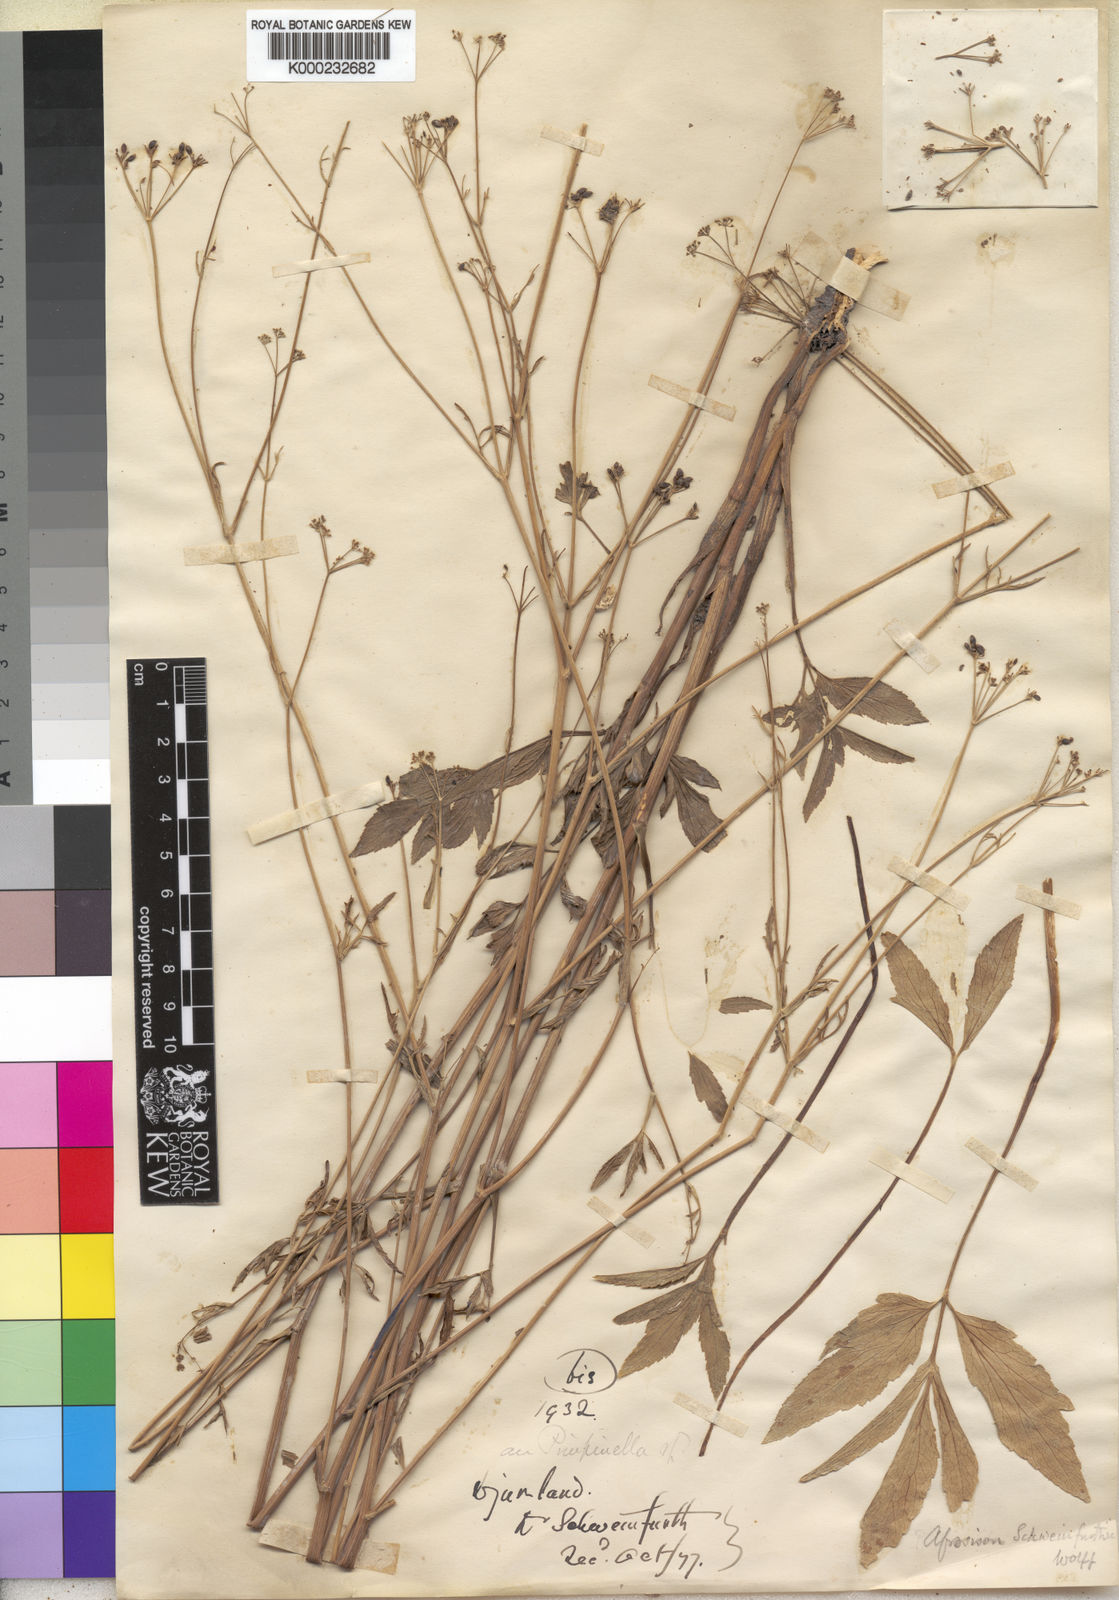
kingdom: Plantae
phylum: Tracheophyta
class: Magnoliopsida
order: Apiales
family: Apiaceae
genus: Pimpinella
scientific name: Pimpinella buchananii
